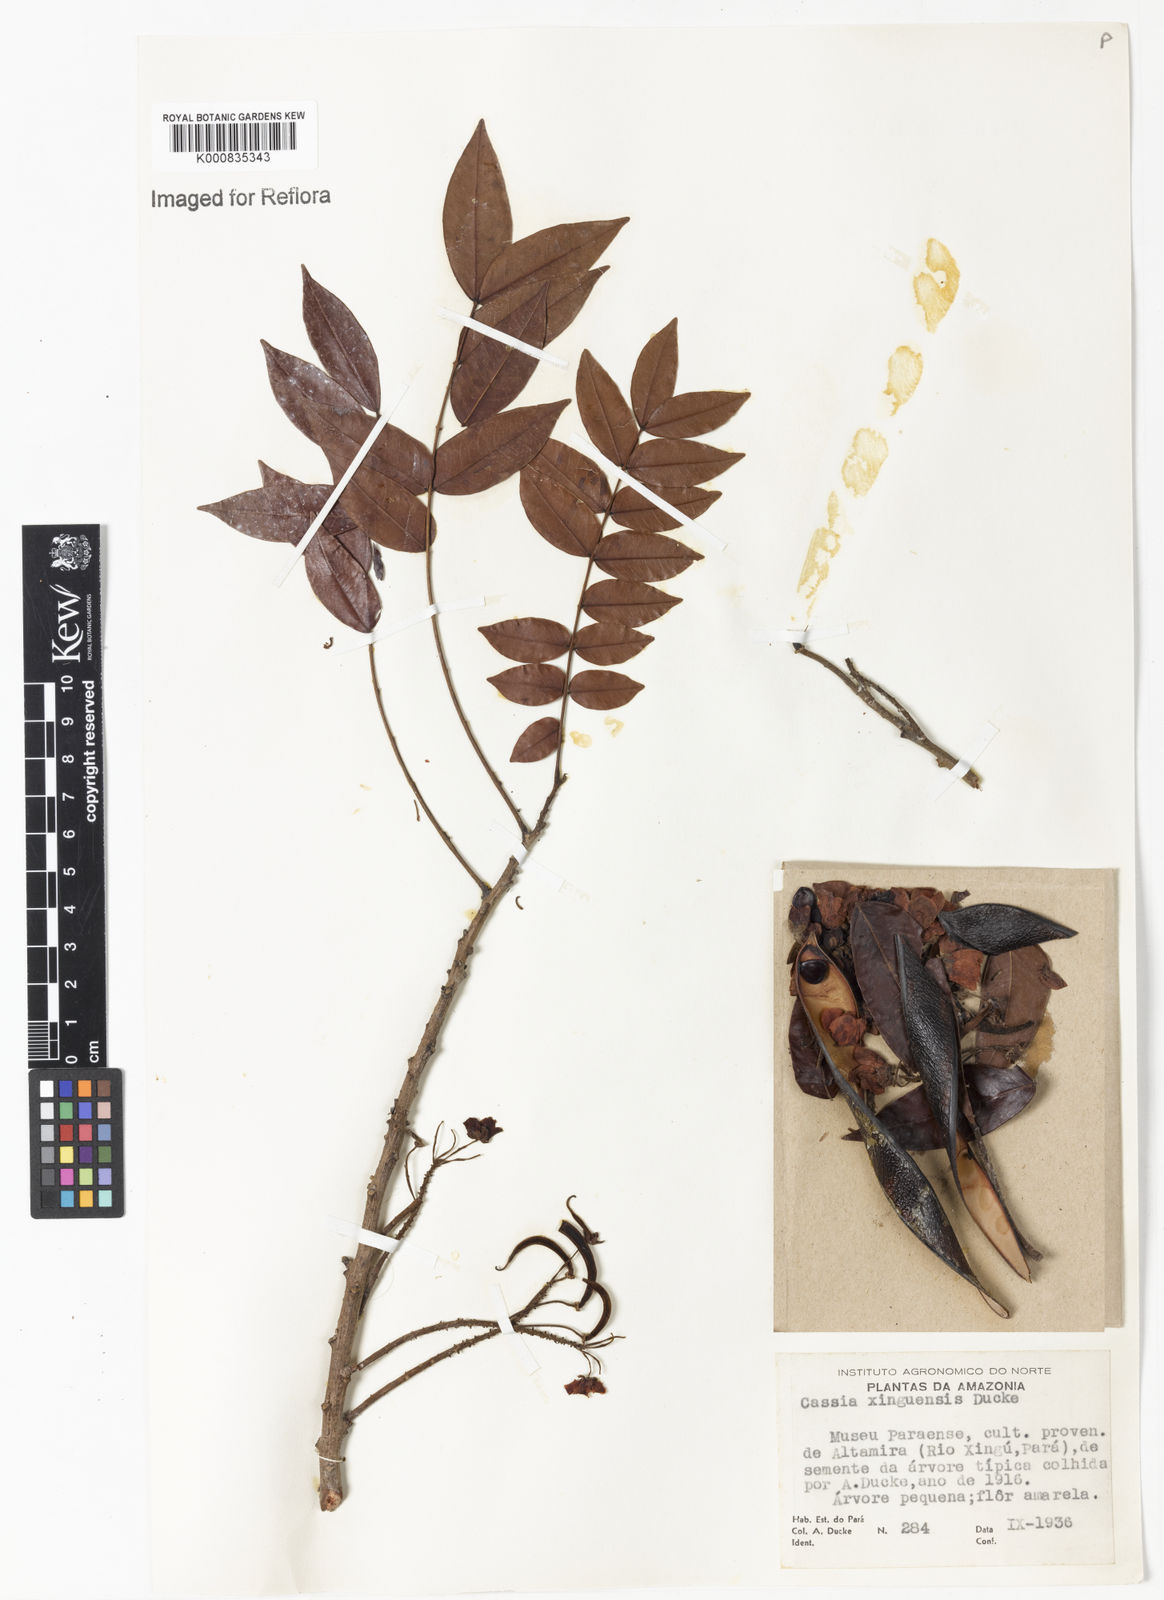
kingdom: Plantae
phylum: Tracheophyta
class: Magnoliopsida
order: Fabales
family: Fabaceae
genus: Chamaecrista
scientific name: Chamaecrista xinguensis
